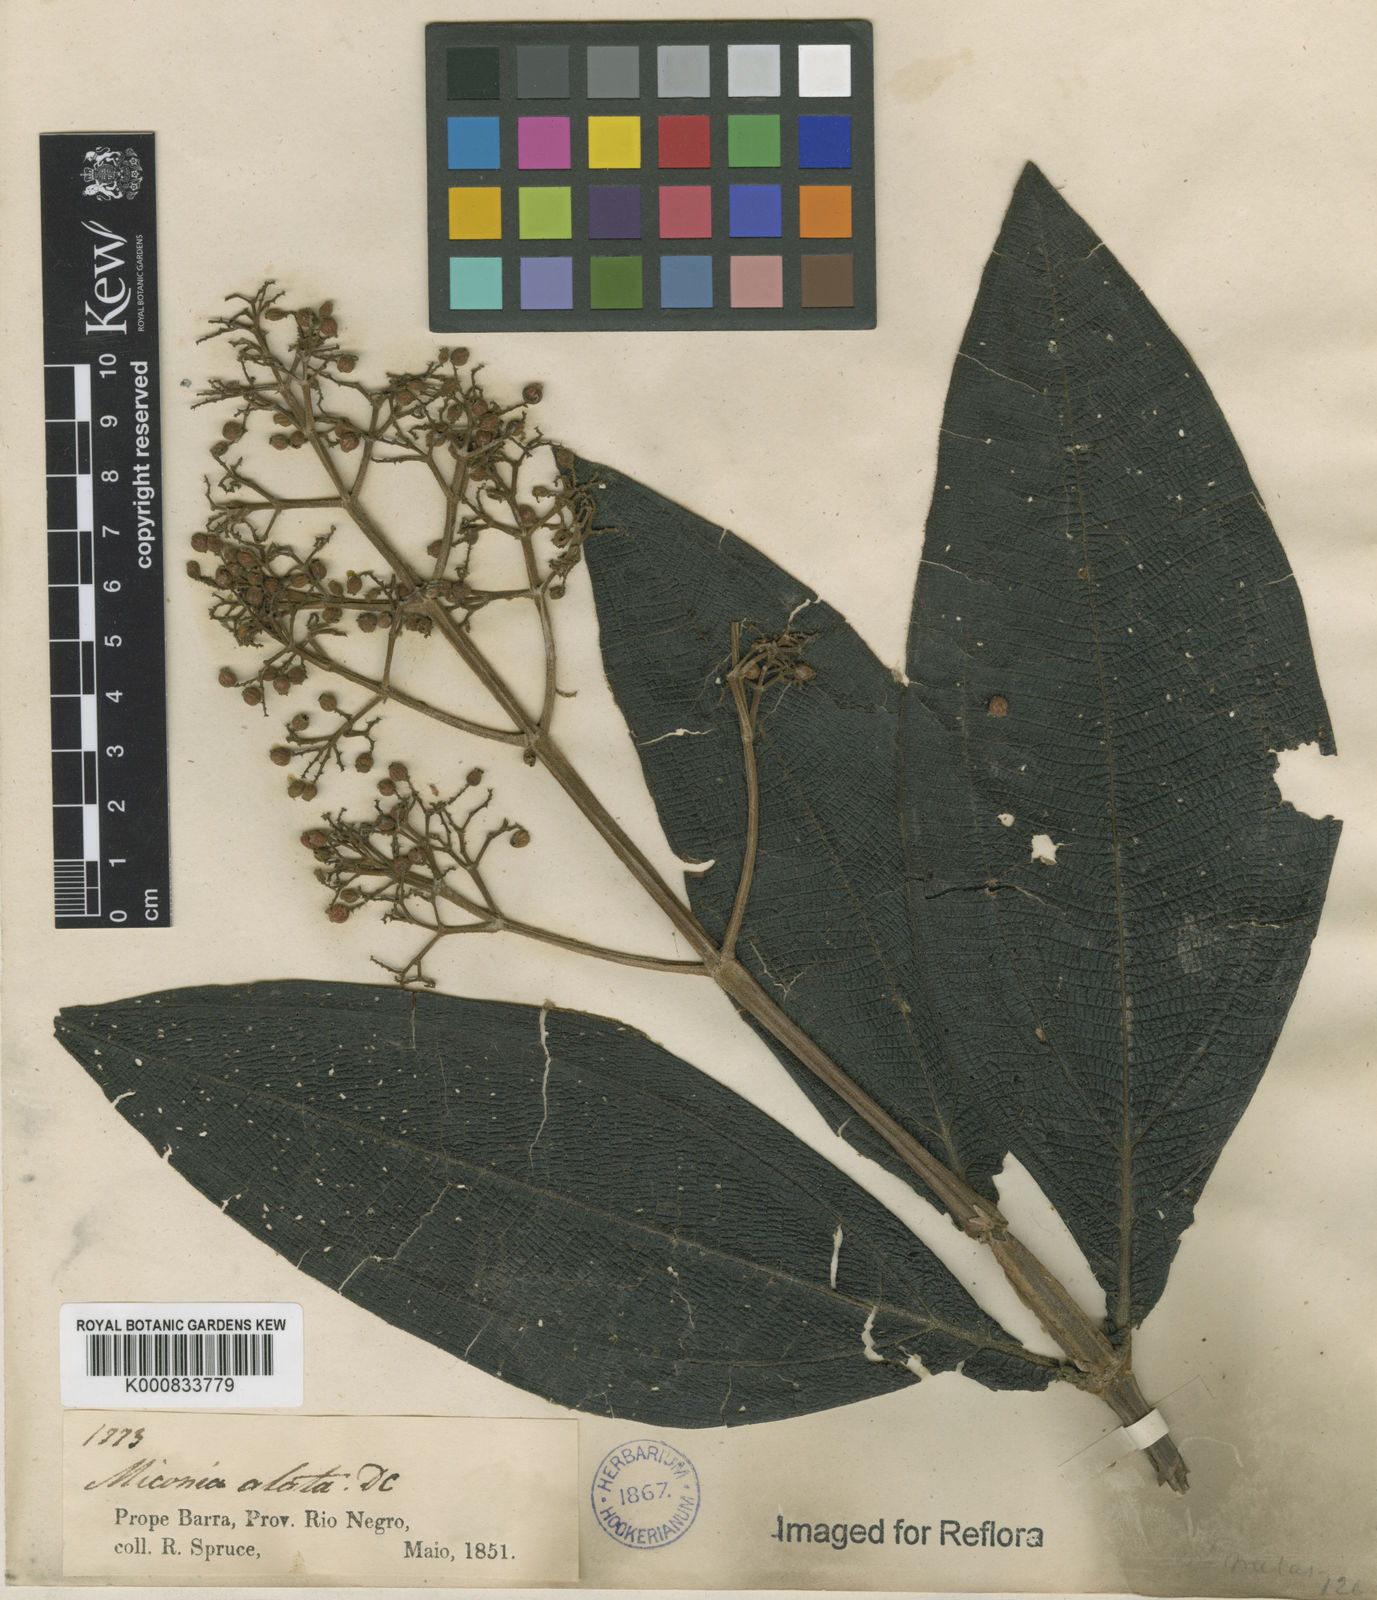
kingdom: Plantae
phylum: Tracheophyta
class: Magnoliopsida
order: Myrtales
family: Melastomataceae
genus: Miconia
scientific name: Miconia alata
